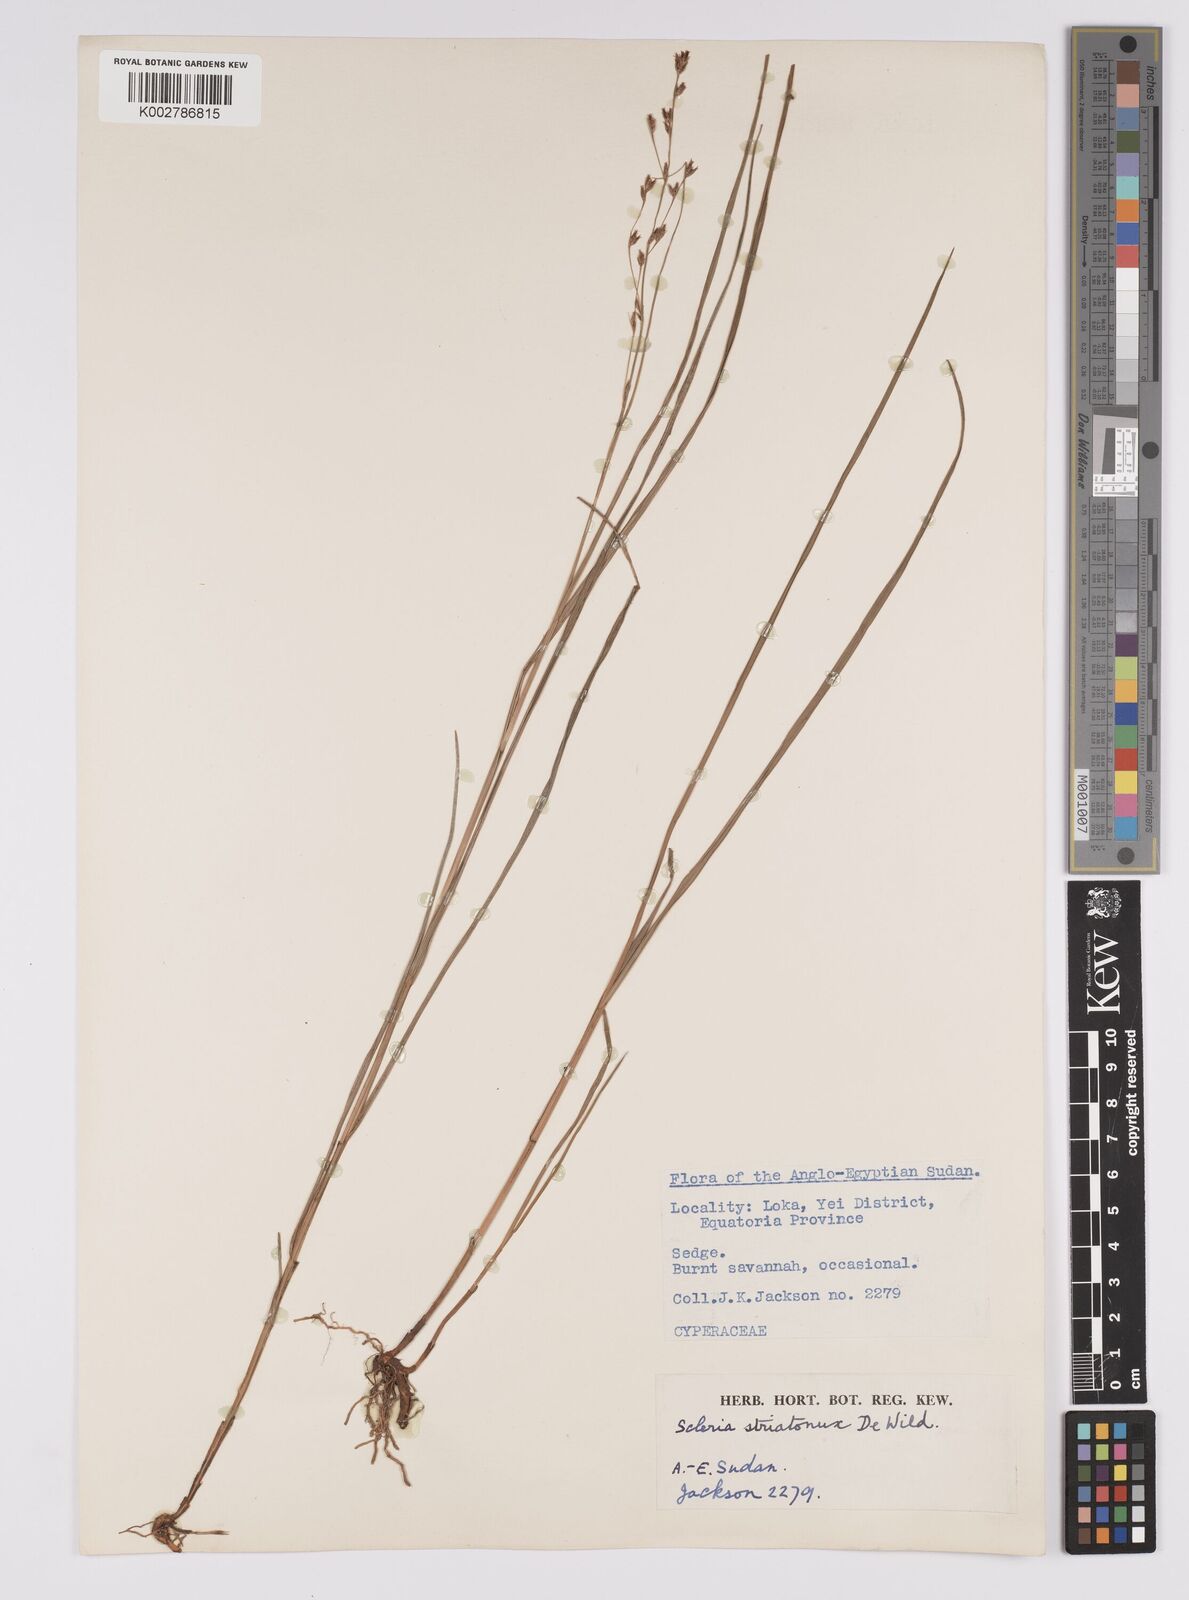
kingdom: Plantae
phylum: Tracheophyta
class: Liliopsida
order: Poales
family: Cyperaceae
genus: Scleria
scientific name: Scleria woodii
